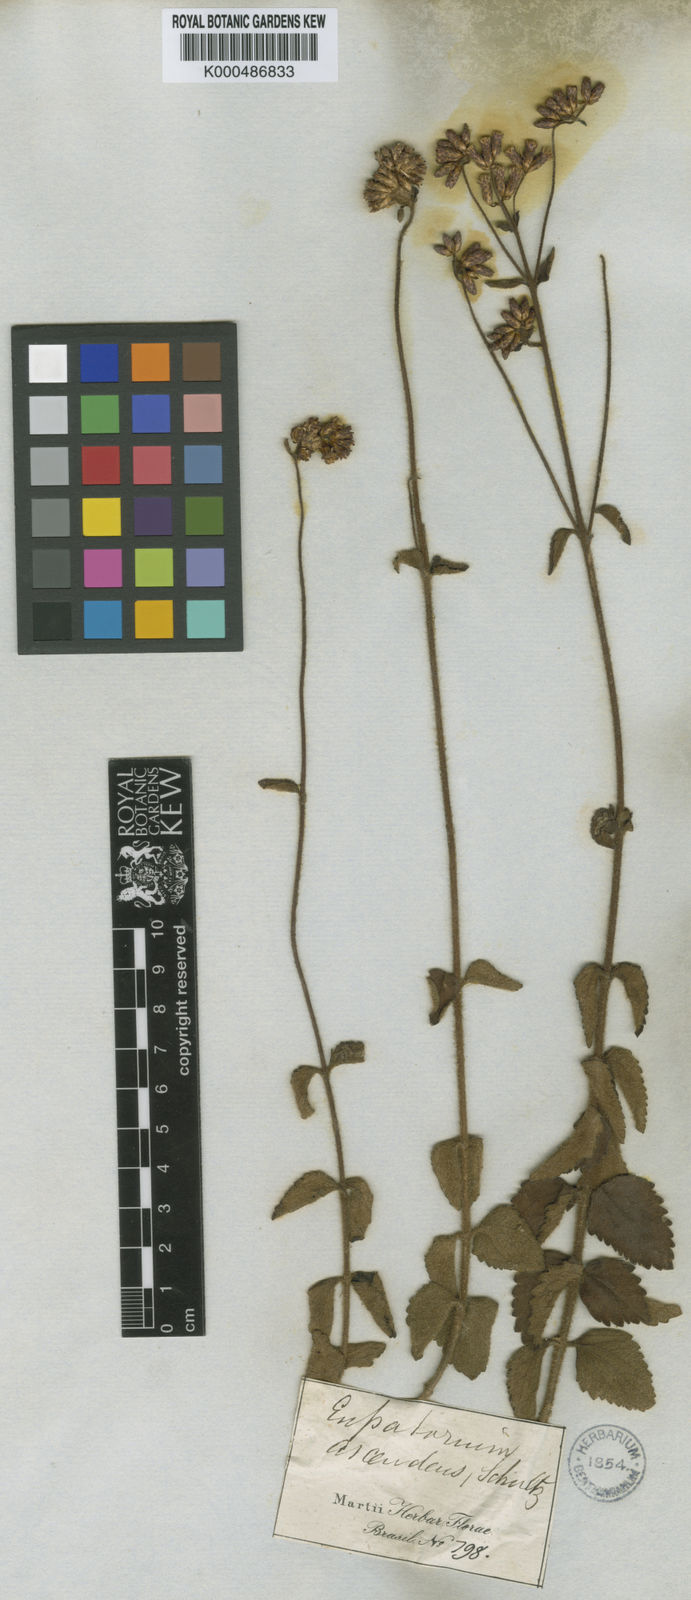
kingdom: Plantae
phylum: Tracheophyta
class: Magnoliopsida
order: Asterales
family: Asteraceae
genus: Chromolaena
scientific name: Chromolaena ascendens
